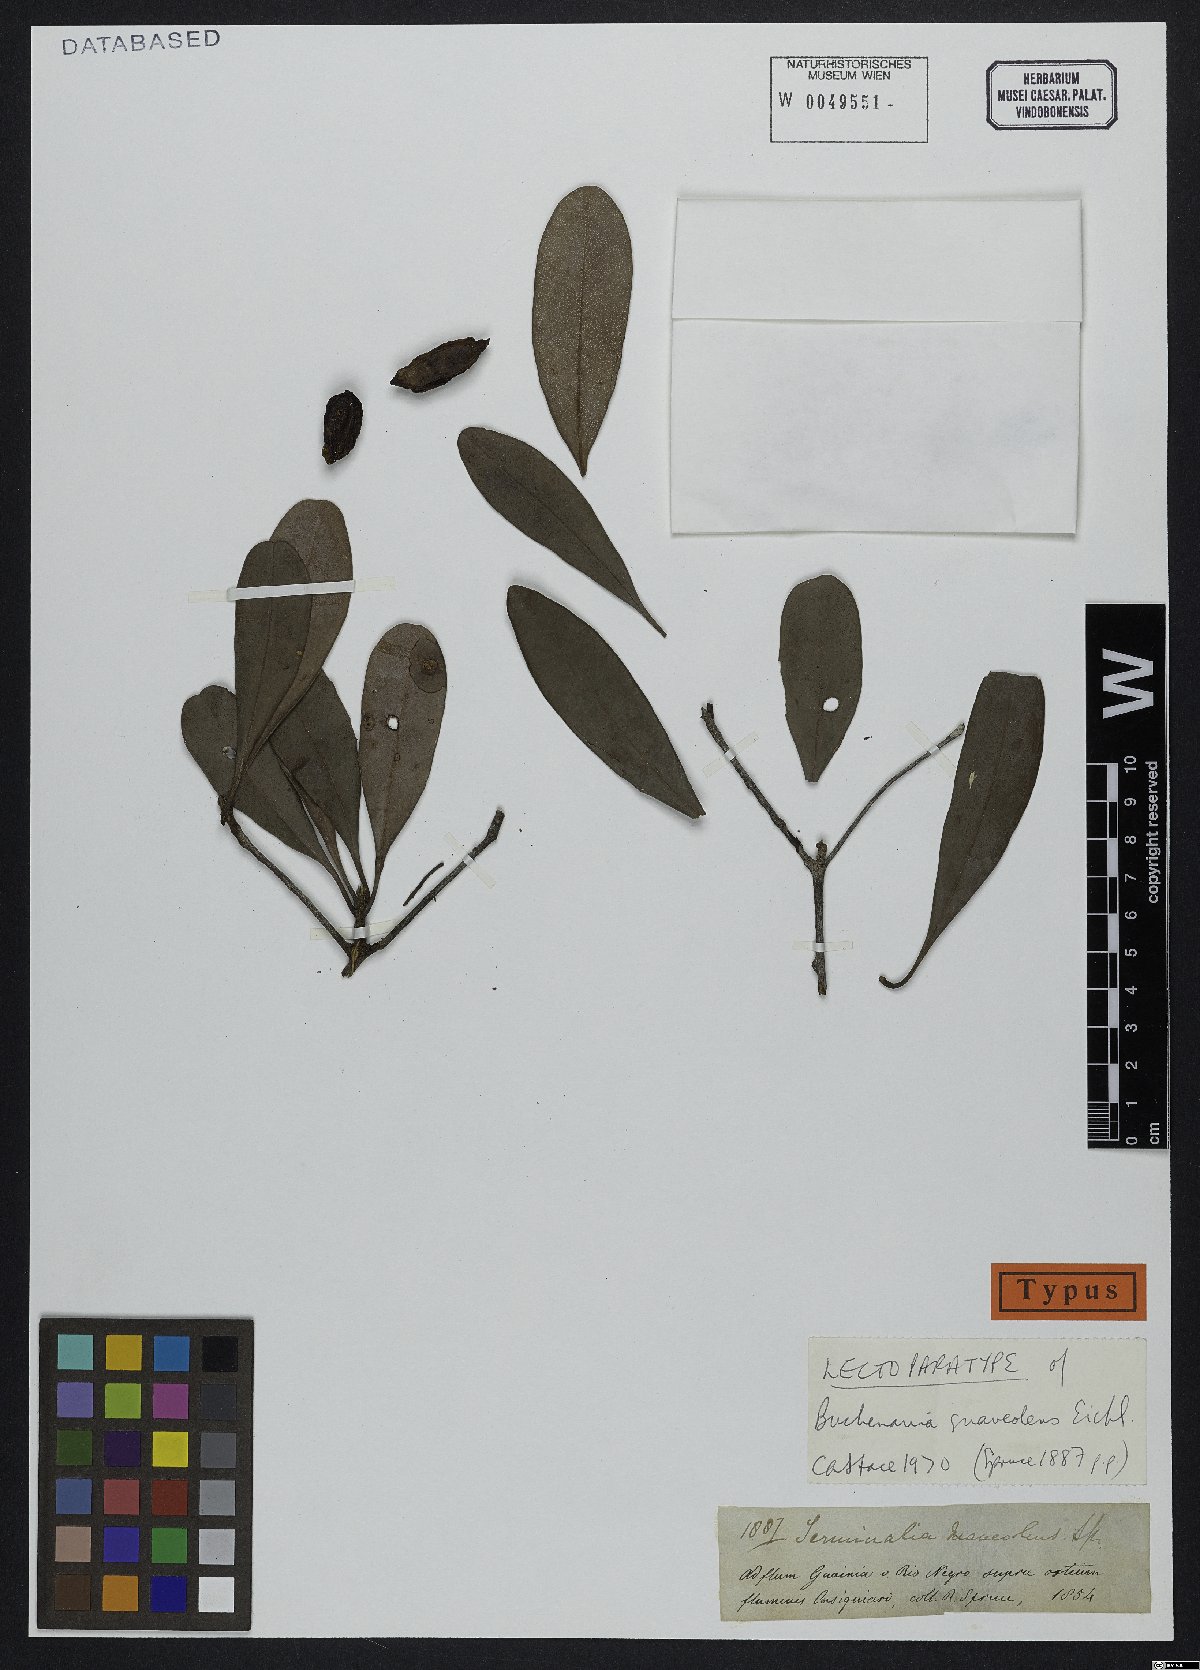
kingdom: Plantae
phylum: Tracheophyta
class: Magnoliopsida
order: Myrtales
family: Combretaceae
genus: Terminalia
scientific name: Terminalia suaveolens
